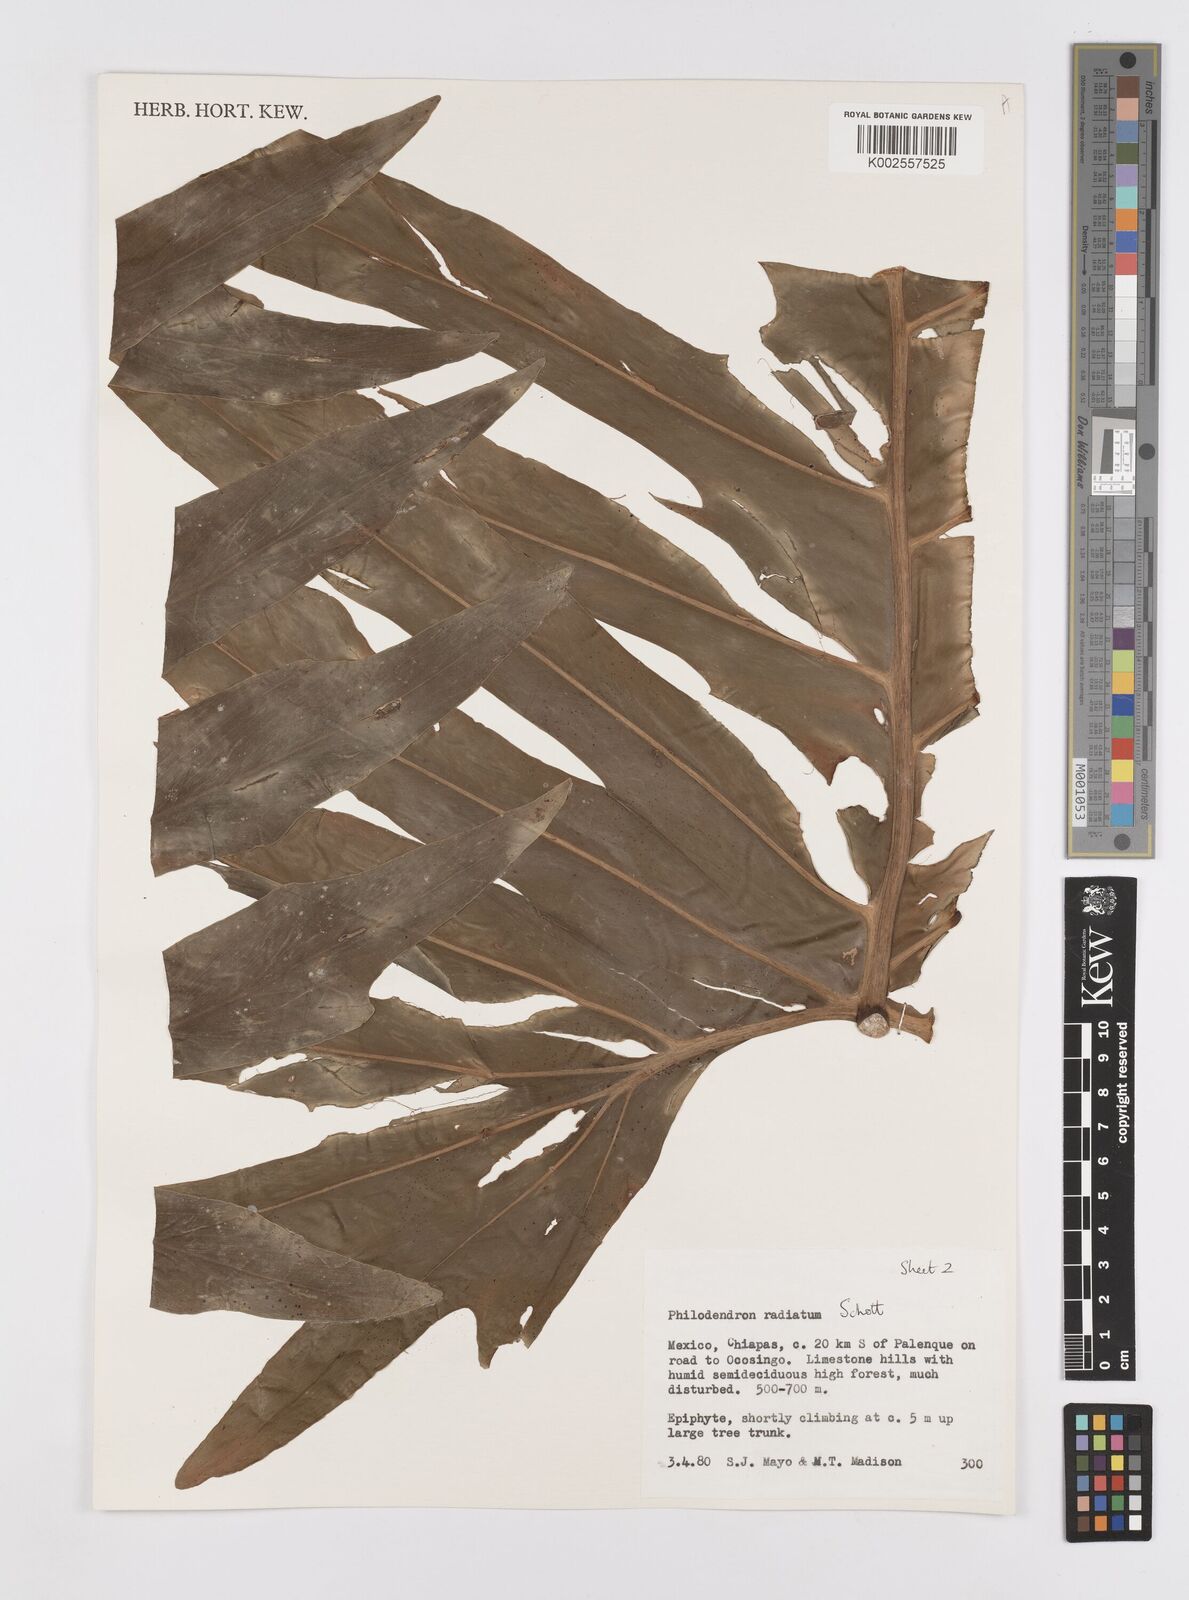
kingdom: Plantae
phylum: Tracheophyta
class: Liliopsida
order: Alismatales
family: Araceae
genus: Philodendron
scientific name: Philodendron radiatum
